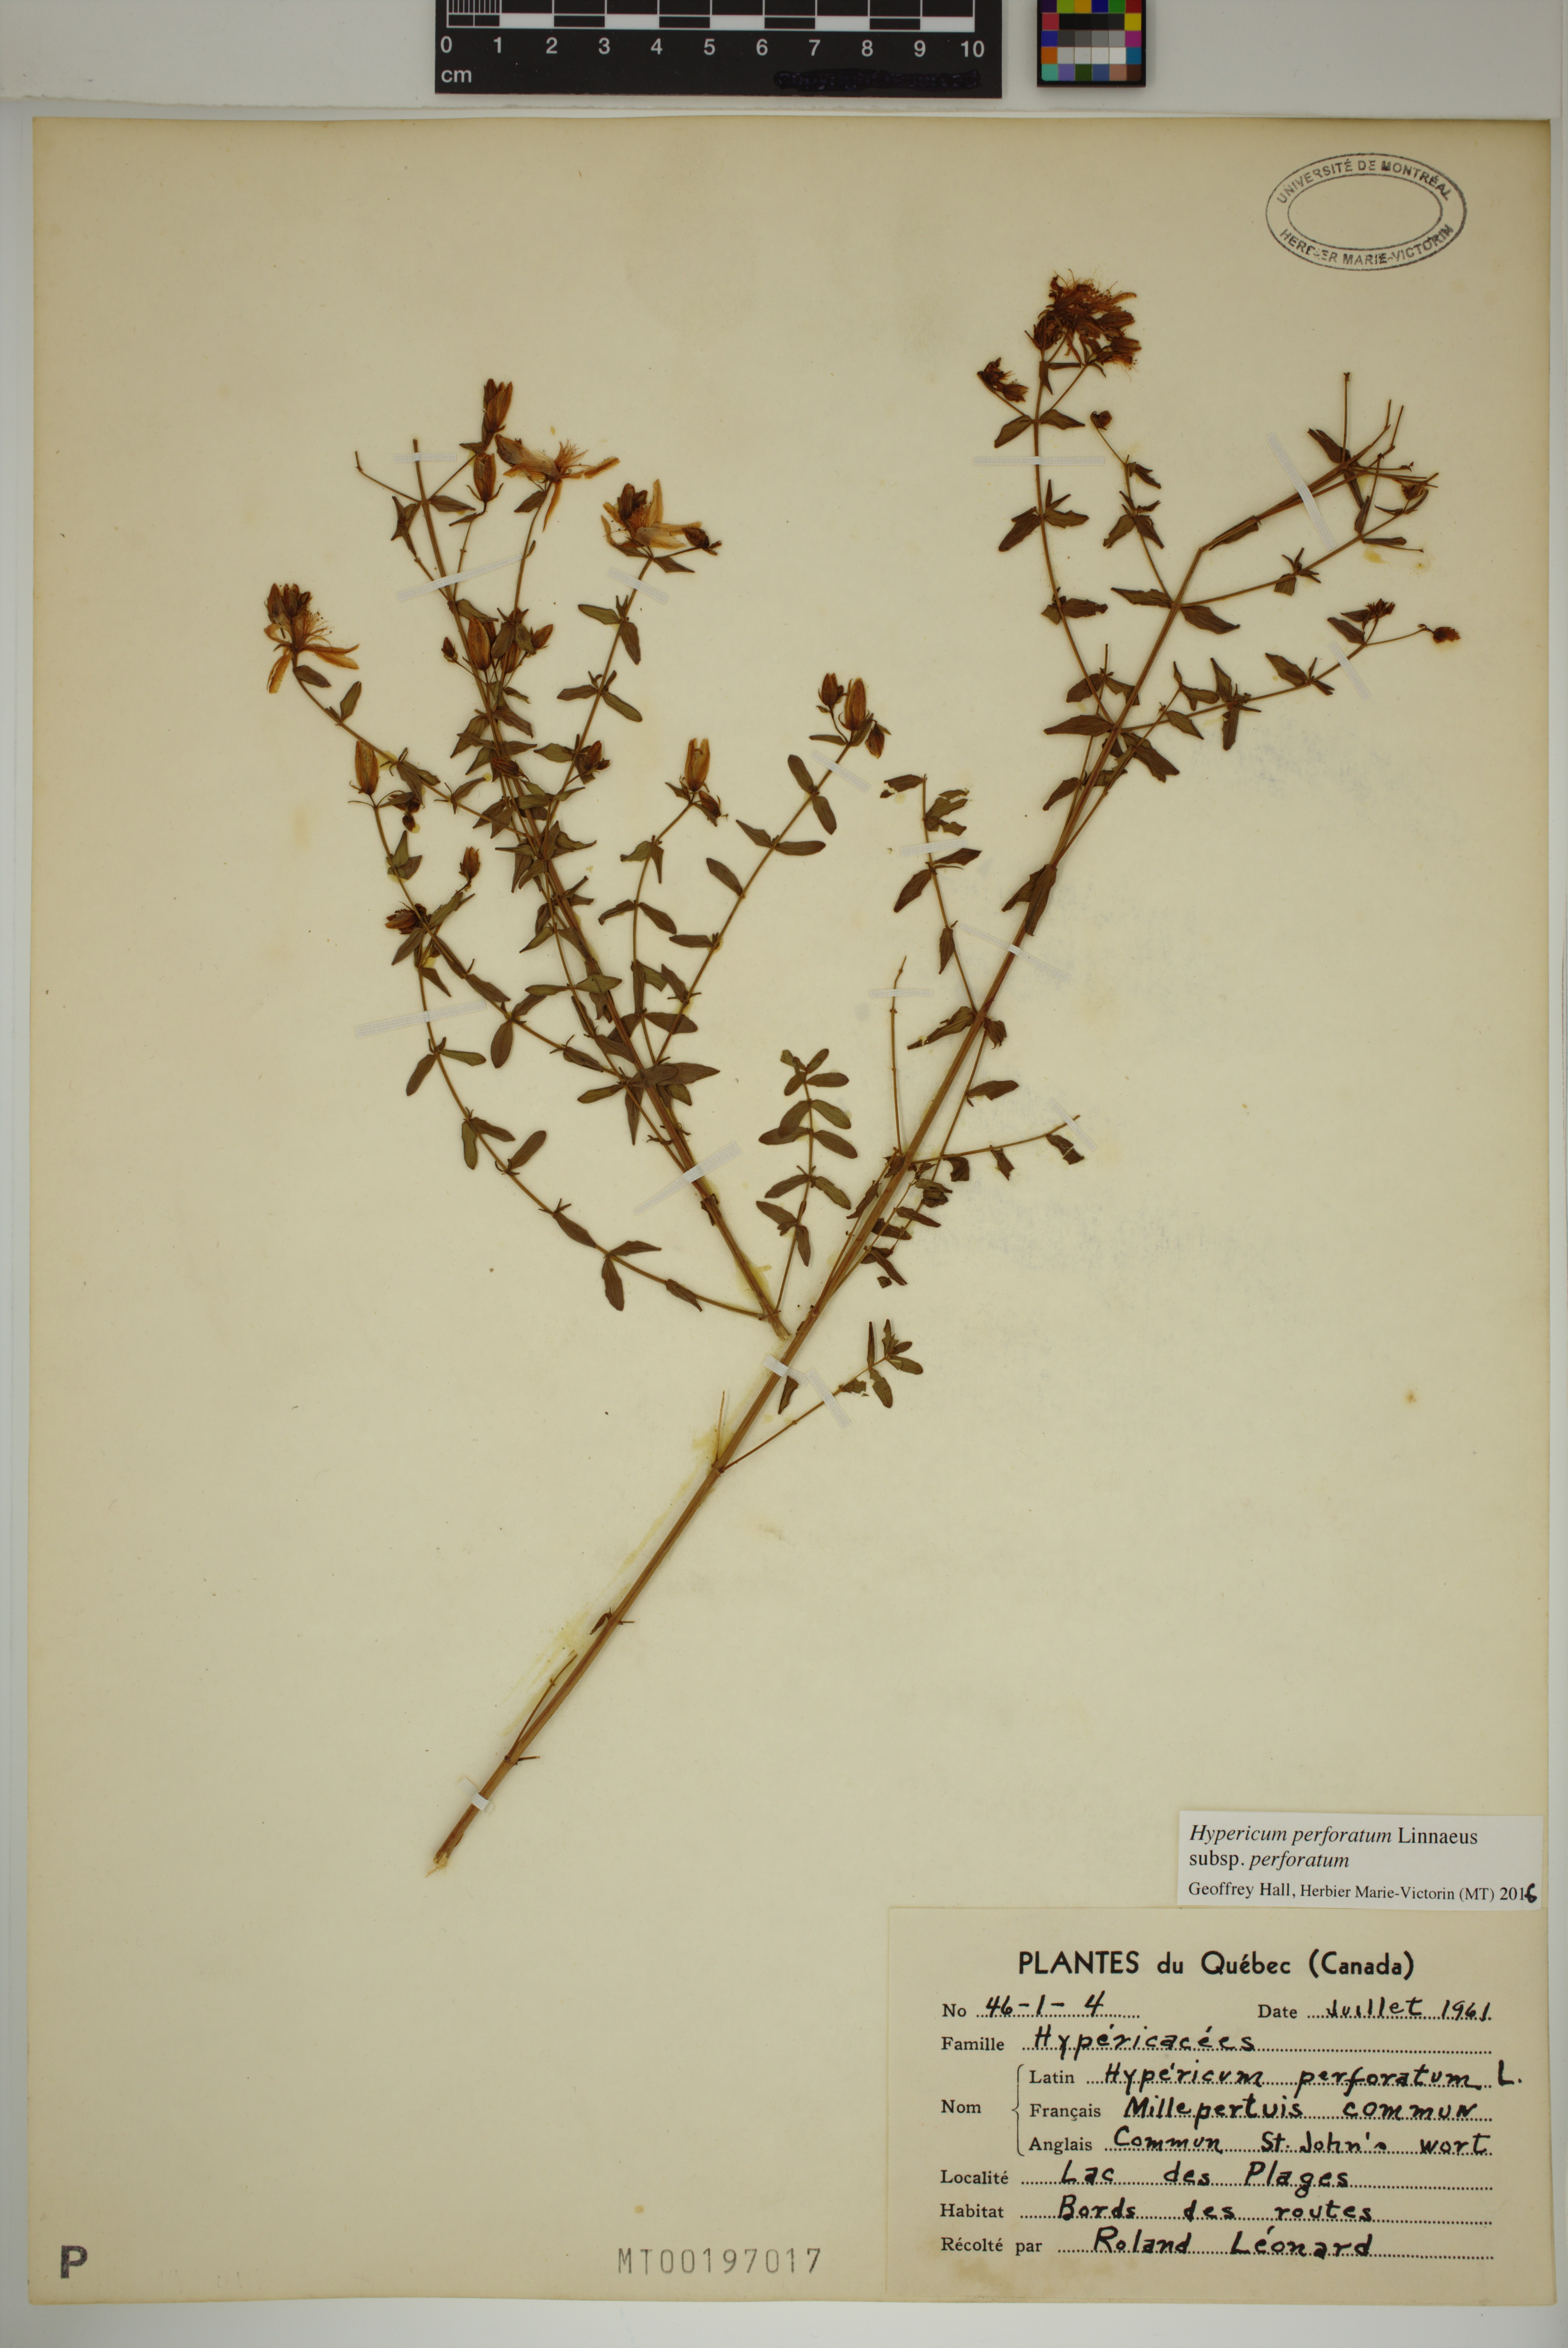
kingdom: Plantae
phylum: Tracheophyta
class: Magnoliopsida
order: Malpighiales
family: Hypericaceae
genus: Hypericum
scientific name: Hypericum perforatum
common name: Common st. johnswort
